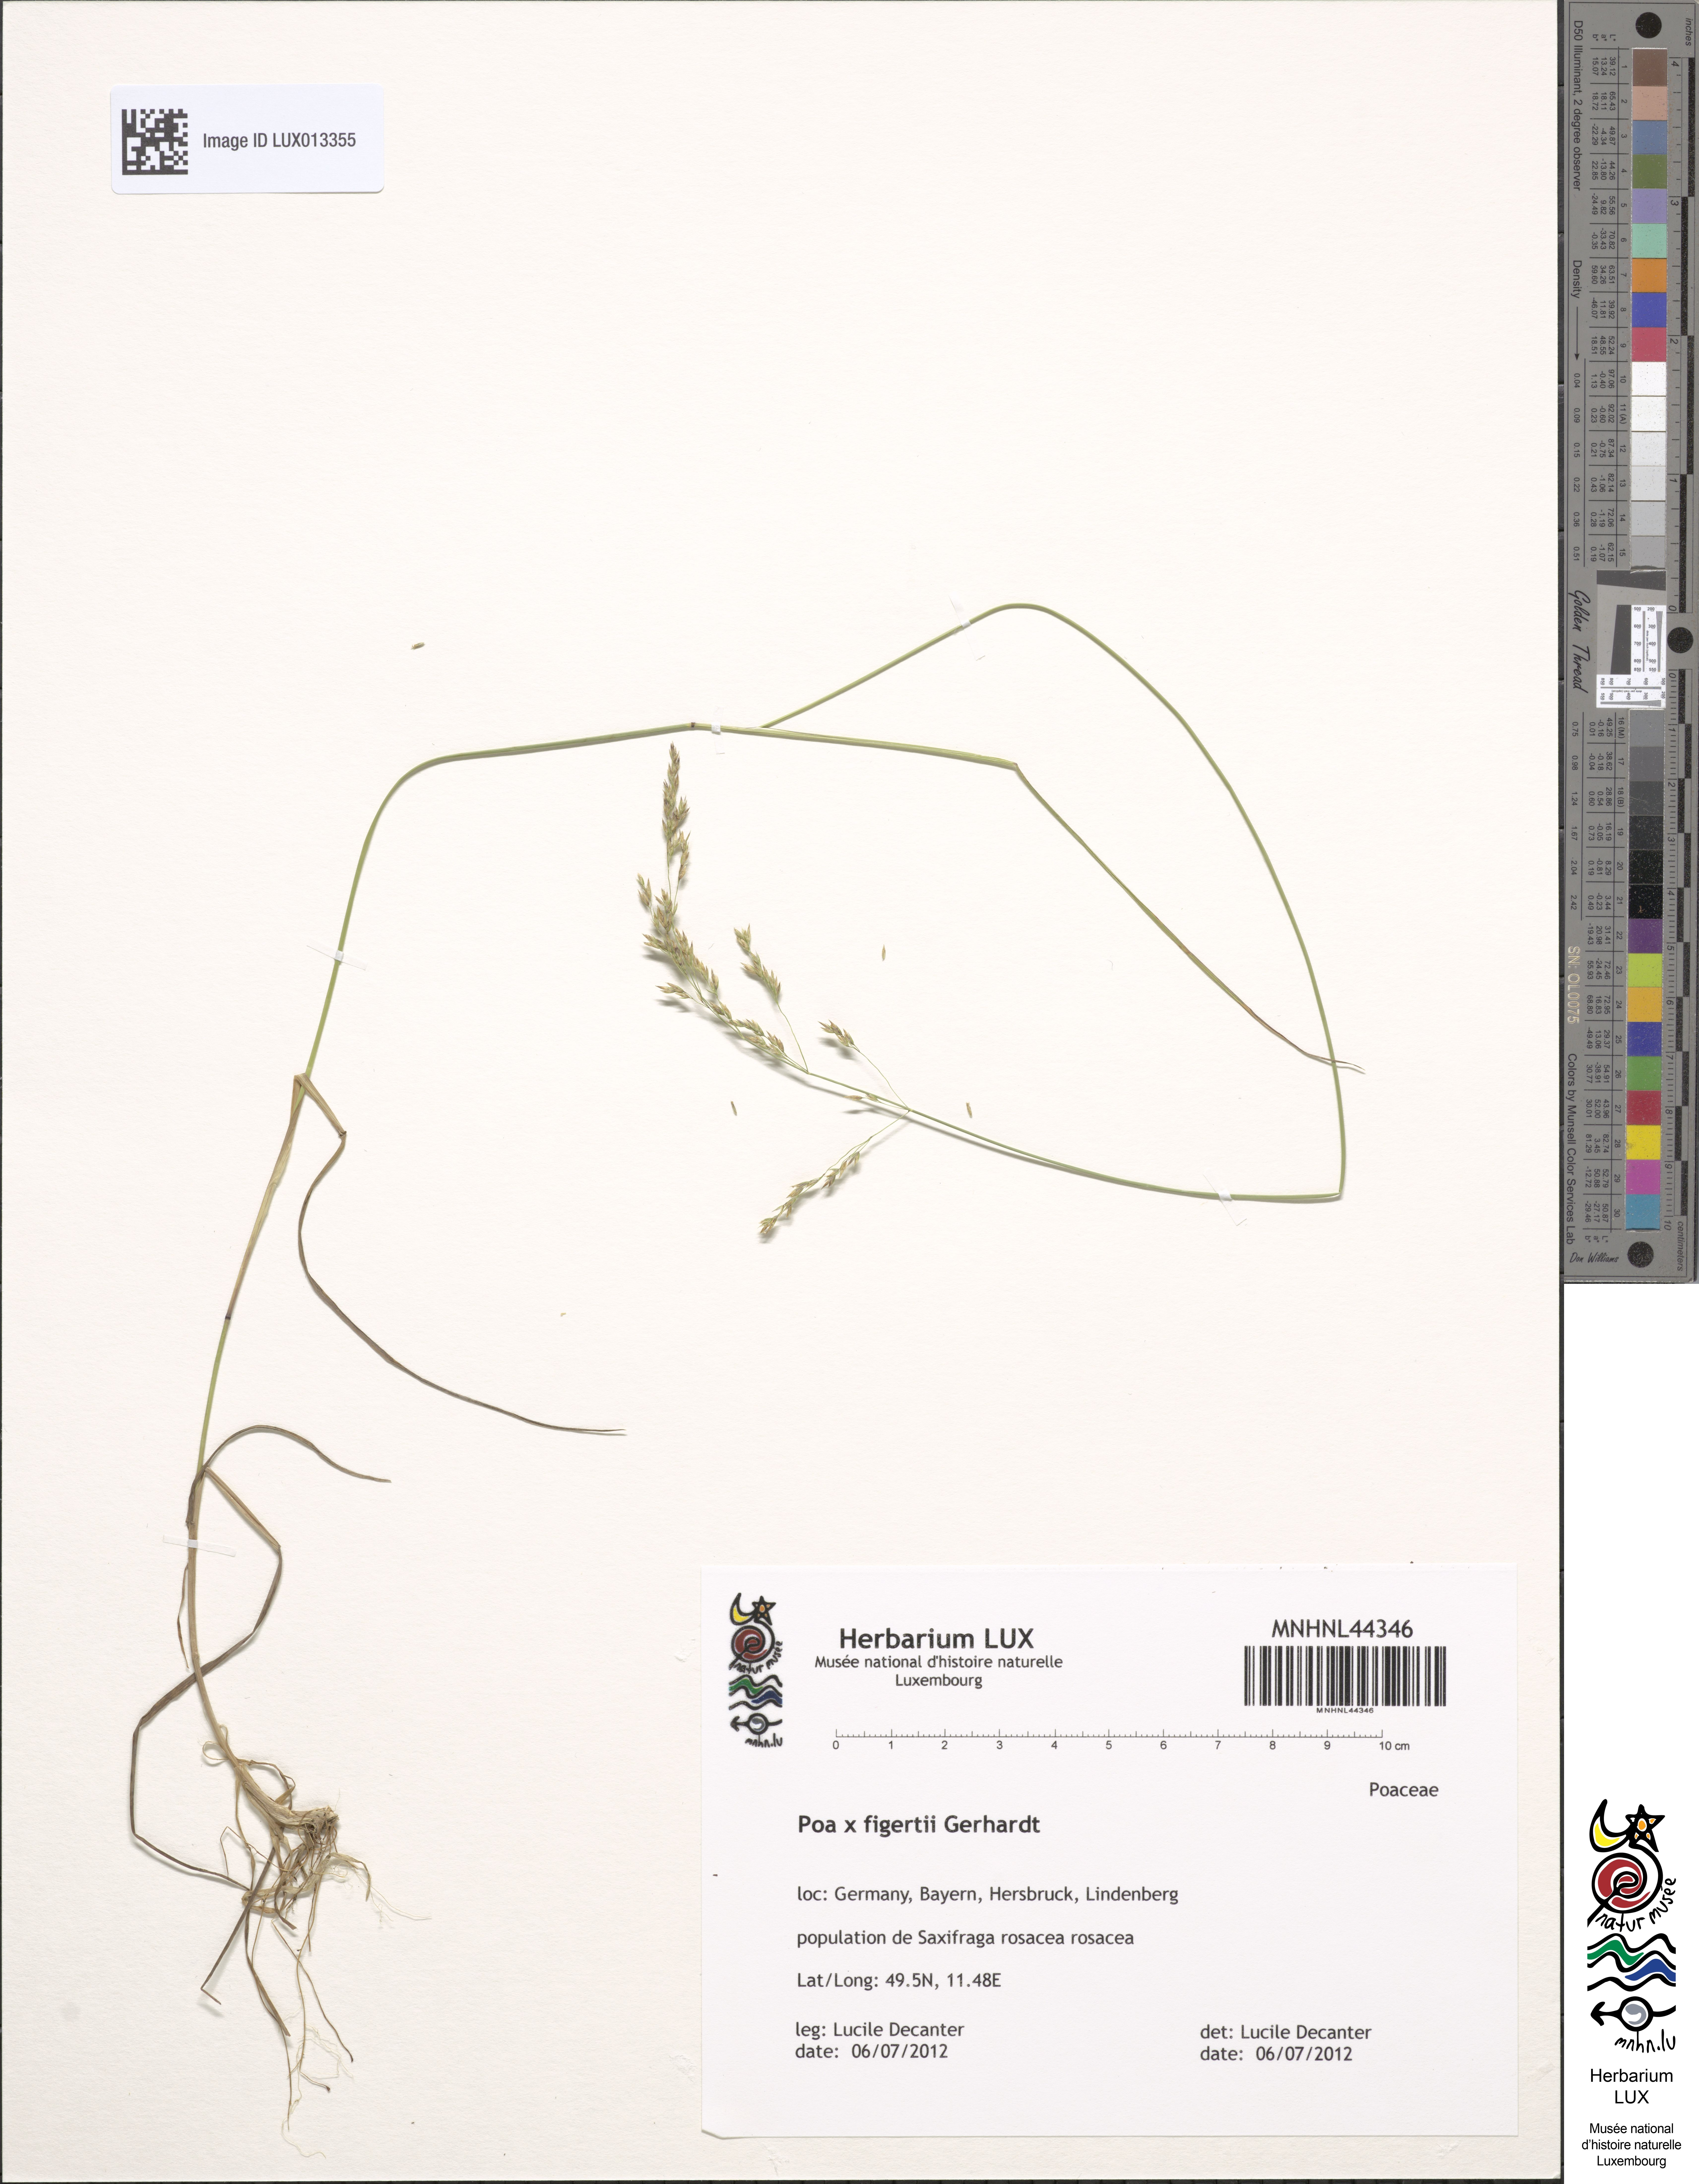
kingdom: Plantae
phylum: Tracheophyta
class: Liliopsida
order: Poales
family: Poaceae
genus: Poa
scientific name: Poa figertii
